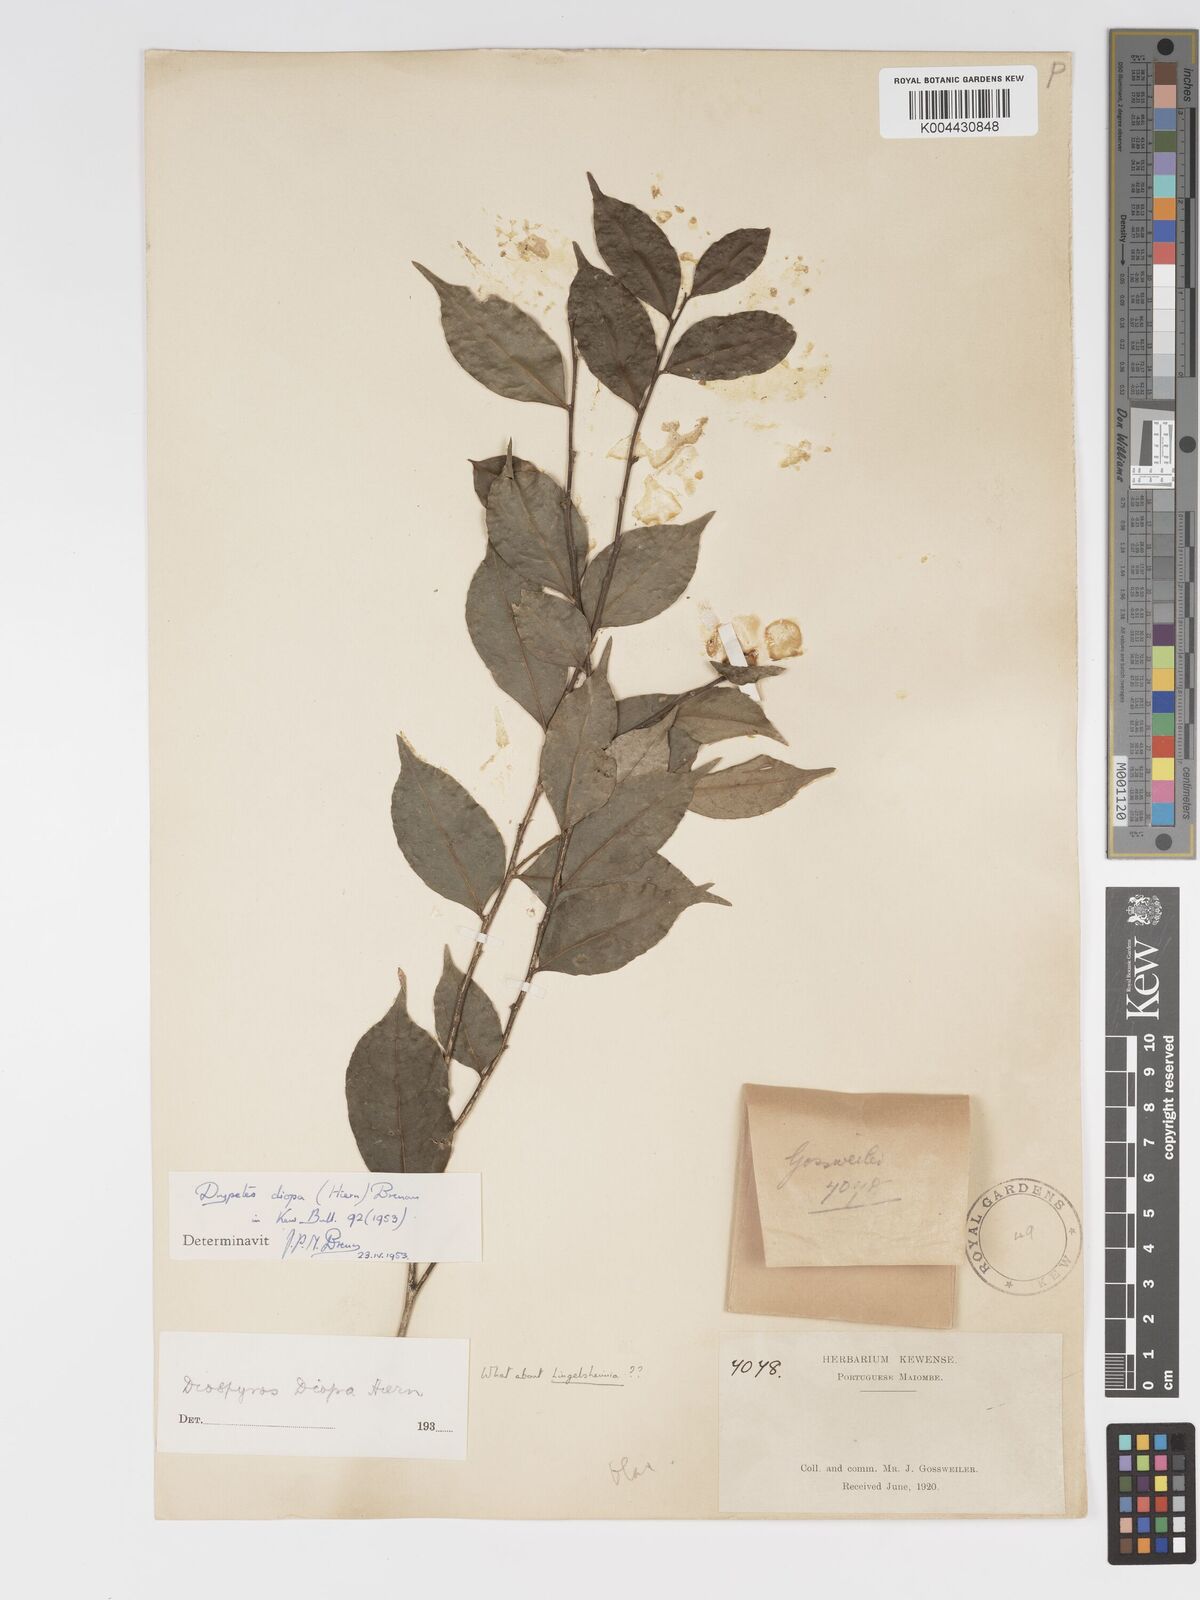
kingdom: Plantae
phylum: Tracheophyta
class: Magnoliopsida
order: Malpighiales
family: Putranjivaceae
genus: Drypetes
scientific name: Drypetes diopa
